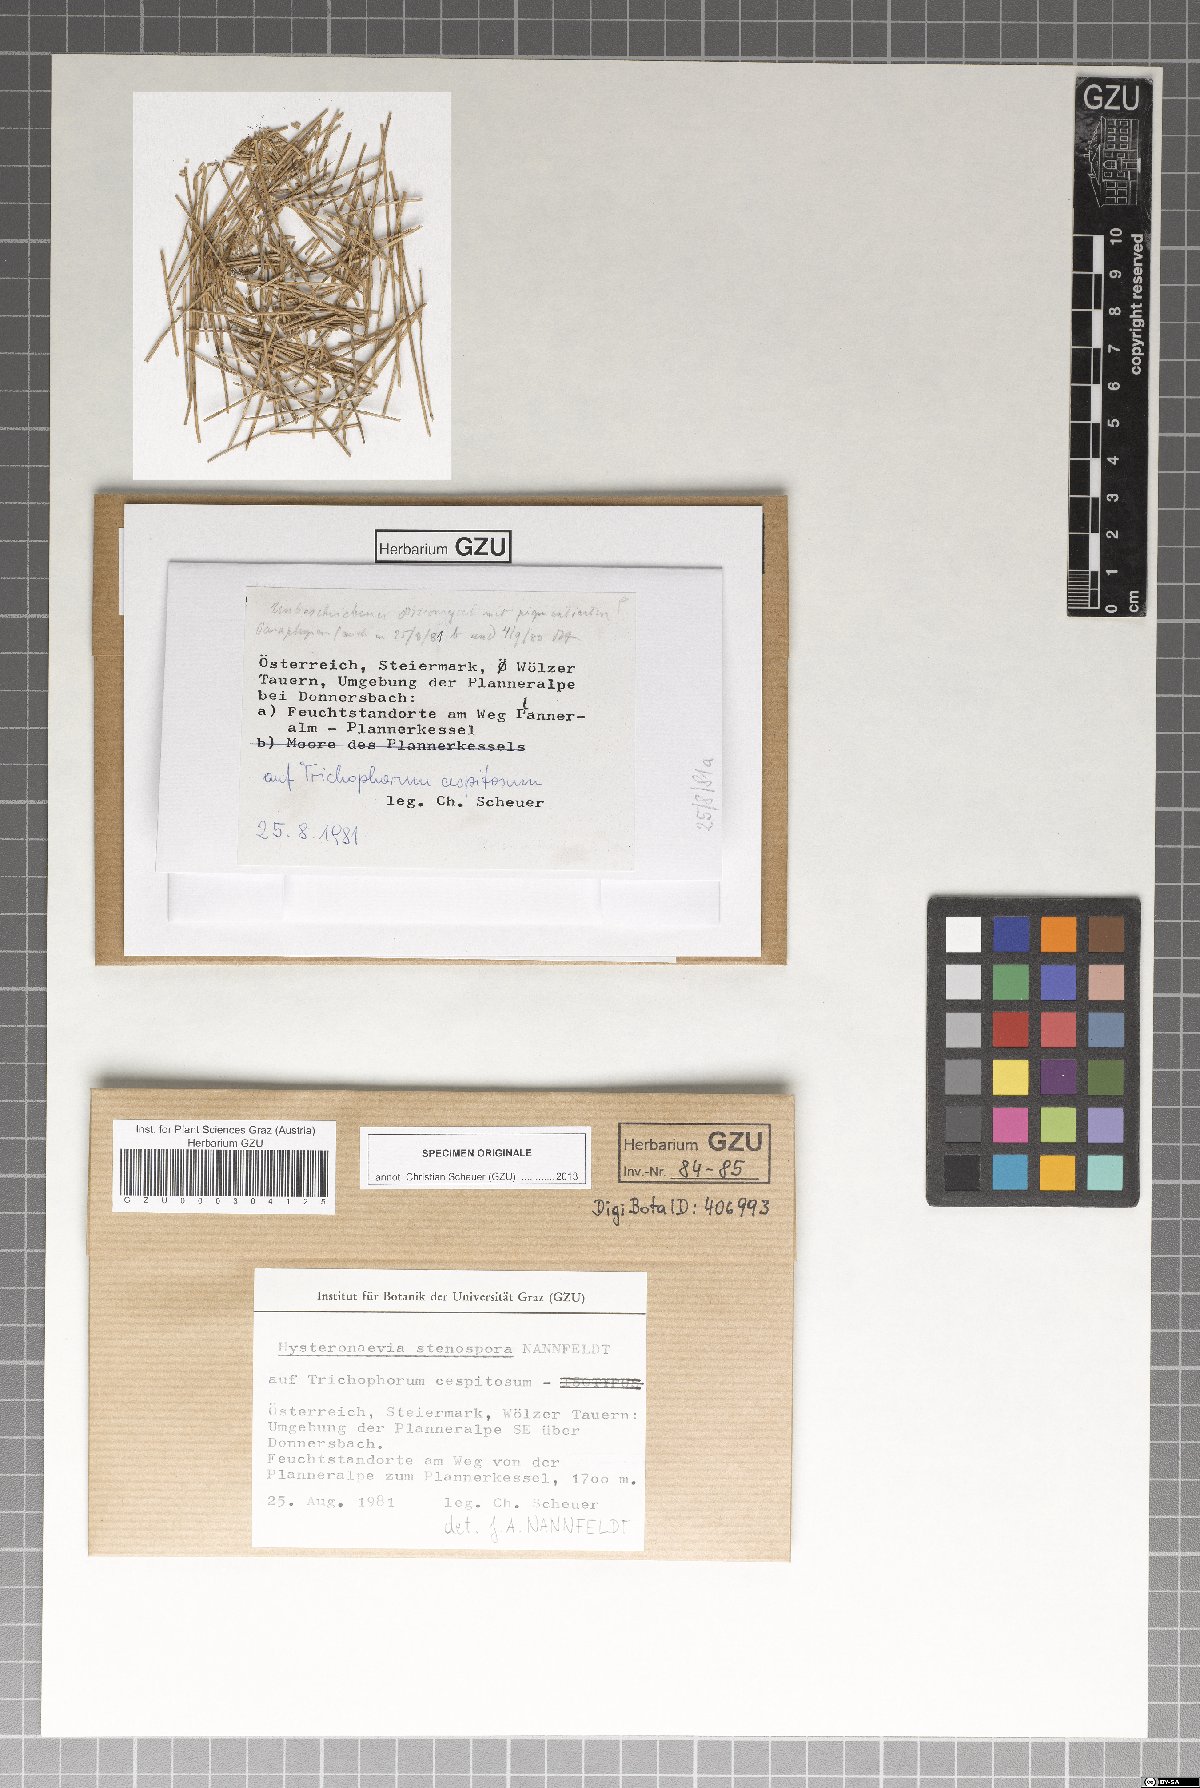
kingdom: Fungi
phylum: Ascomycota
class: Leotiomycetes
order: Helotiales
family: Dermateaceae
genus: Hysteronaevia
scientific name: Hysteronaevia stenospora
